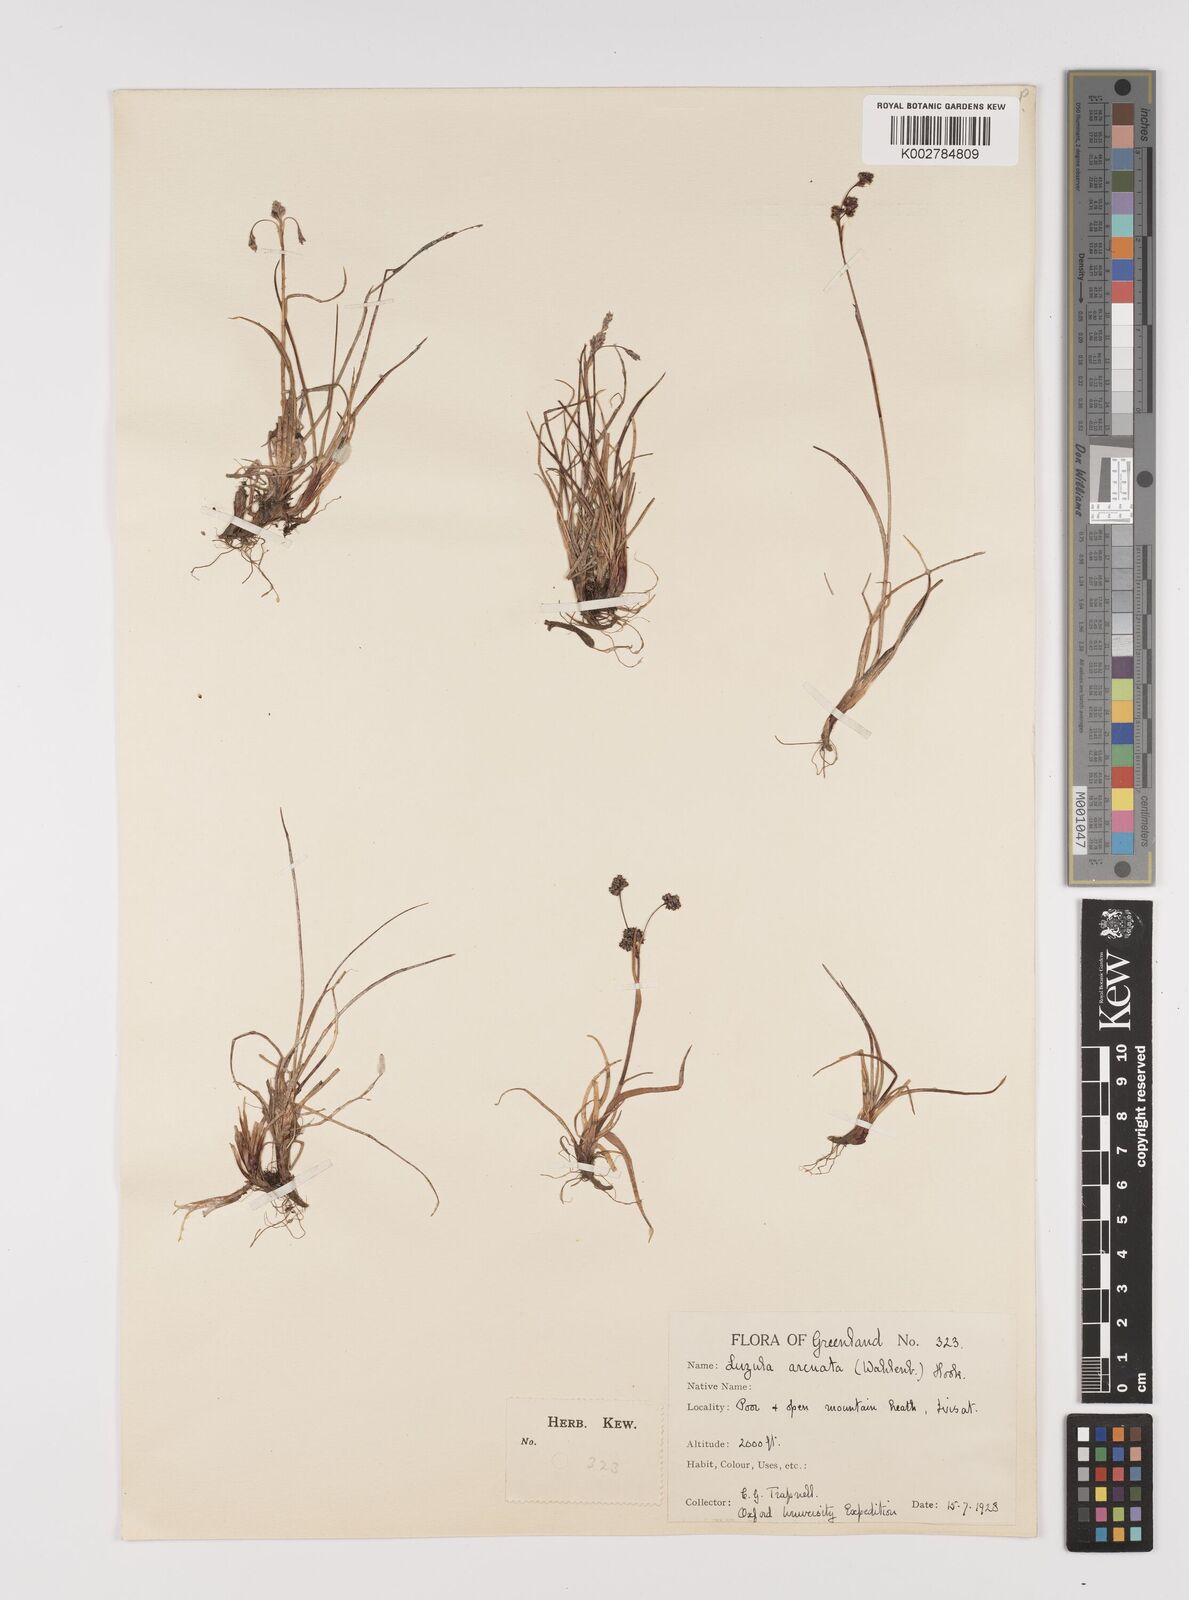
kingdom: Plantae
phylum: Tracheophyta
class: Liliopsida
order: Poales
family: Juncaceae
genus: Luzula
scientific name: Luzula confusa
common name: Northern wood rush
